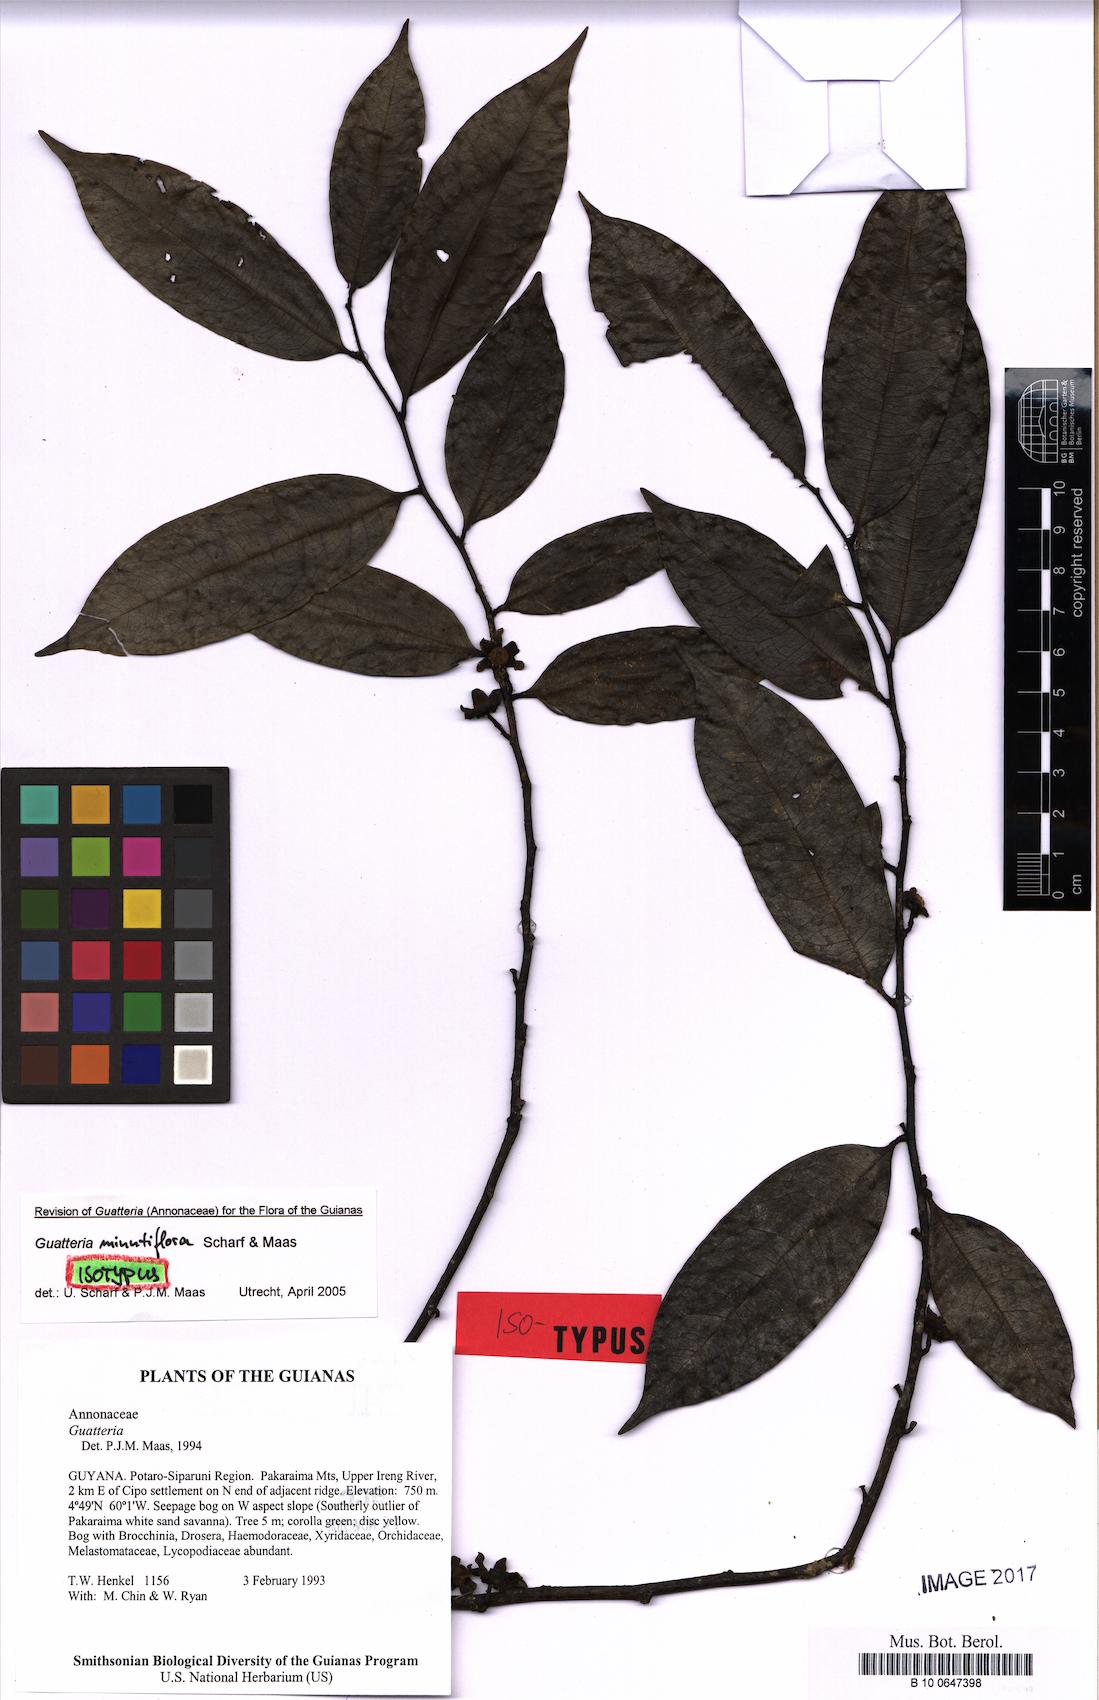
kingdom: Plantae
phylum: Tracheophyta
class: Magnoliopsida
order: Magnoliales
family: Annonaceae
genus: Guatteria
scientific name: Guatteria minutiflora
